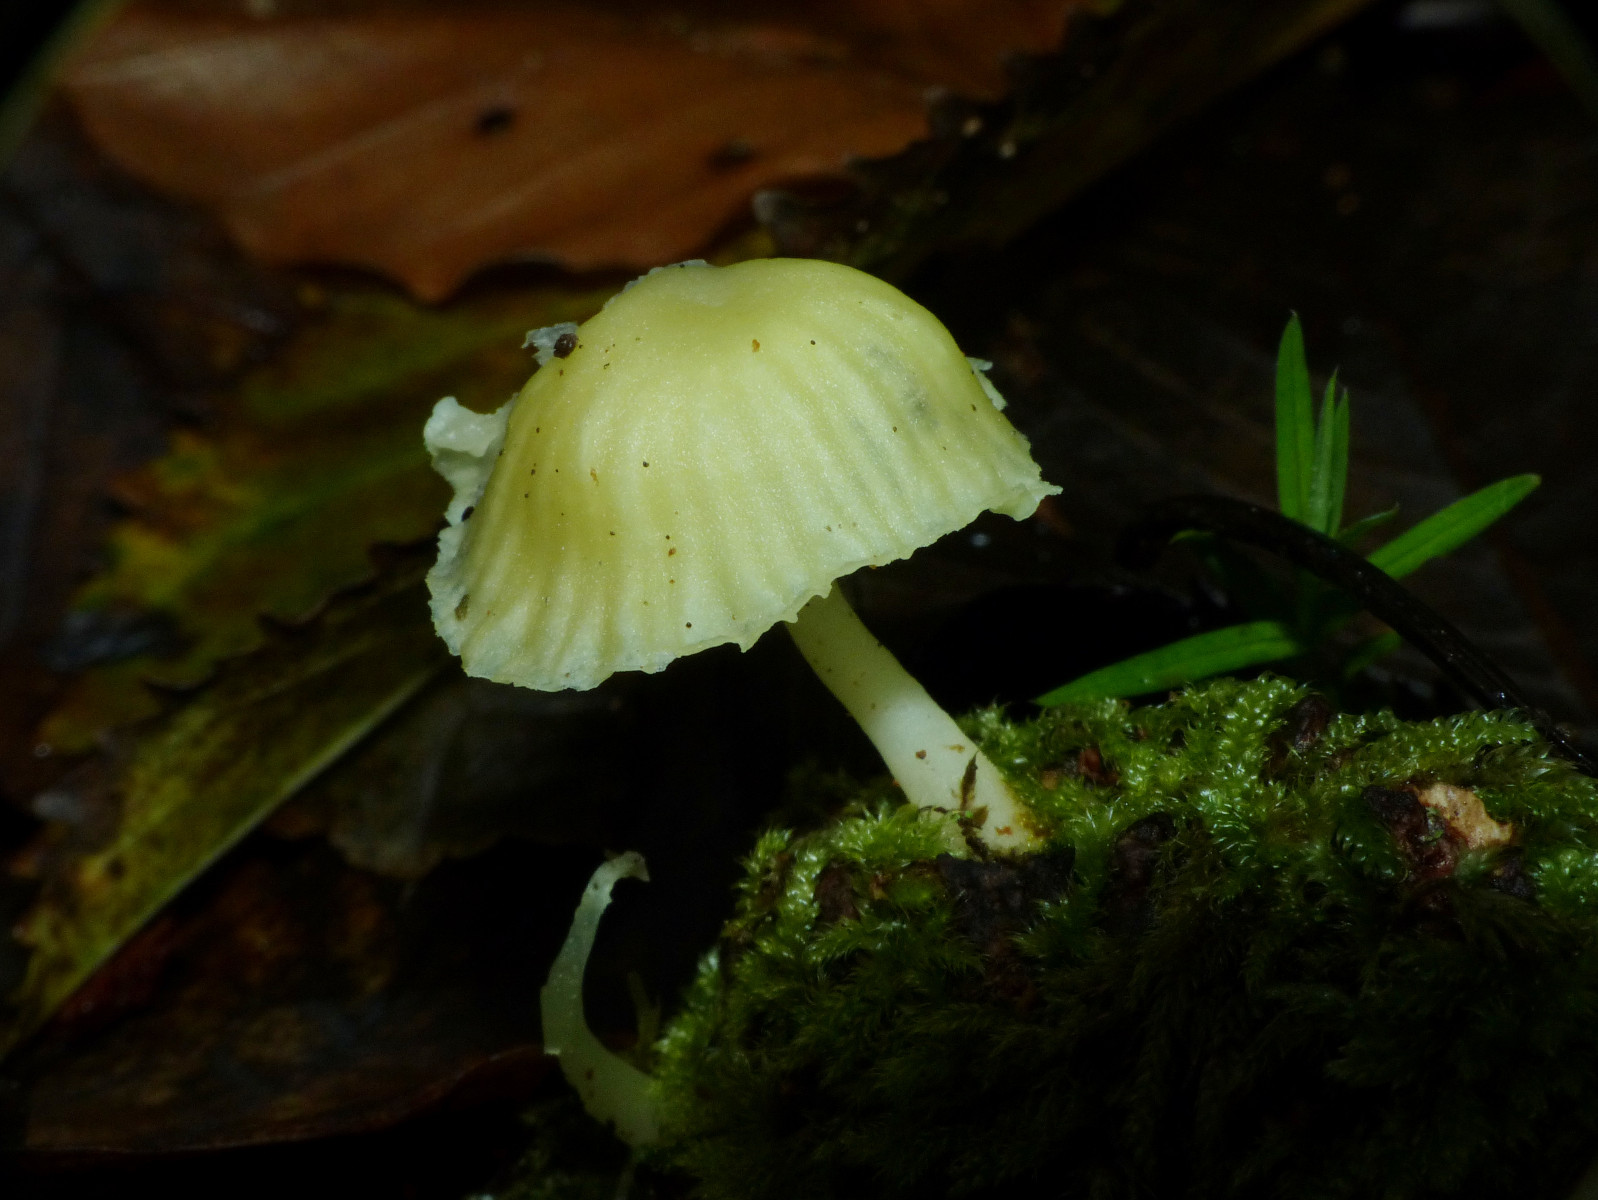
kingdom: Fungi
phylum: Basidiomycota
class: Agaricomycetes
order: Agaricales
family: Hygrophoraceae
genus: Chrysomphalina
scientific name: Chrysomphalina grossula
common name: stød-gyldenblad
